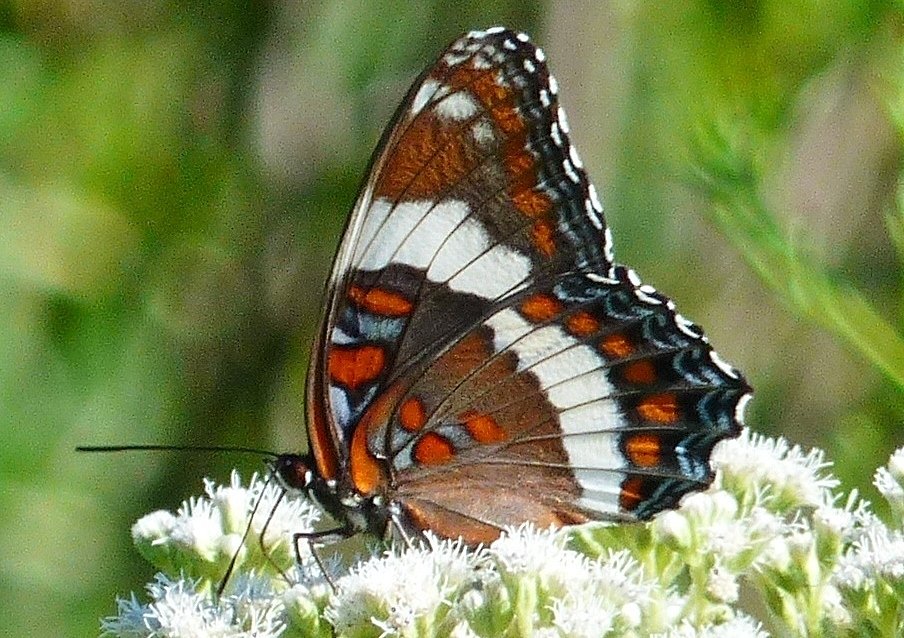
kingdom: Animalia
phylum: Arthropoda
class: Insecta
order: Lepidoptera
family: Nymphalidae
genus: Limenitis
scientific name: Limenitis arthemis
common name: Red-spotted Admiral
